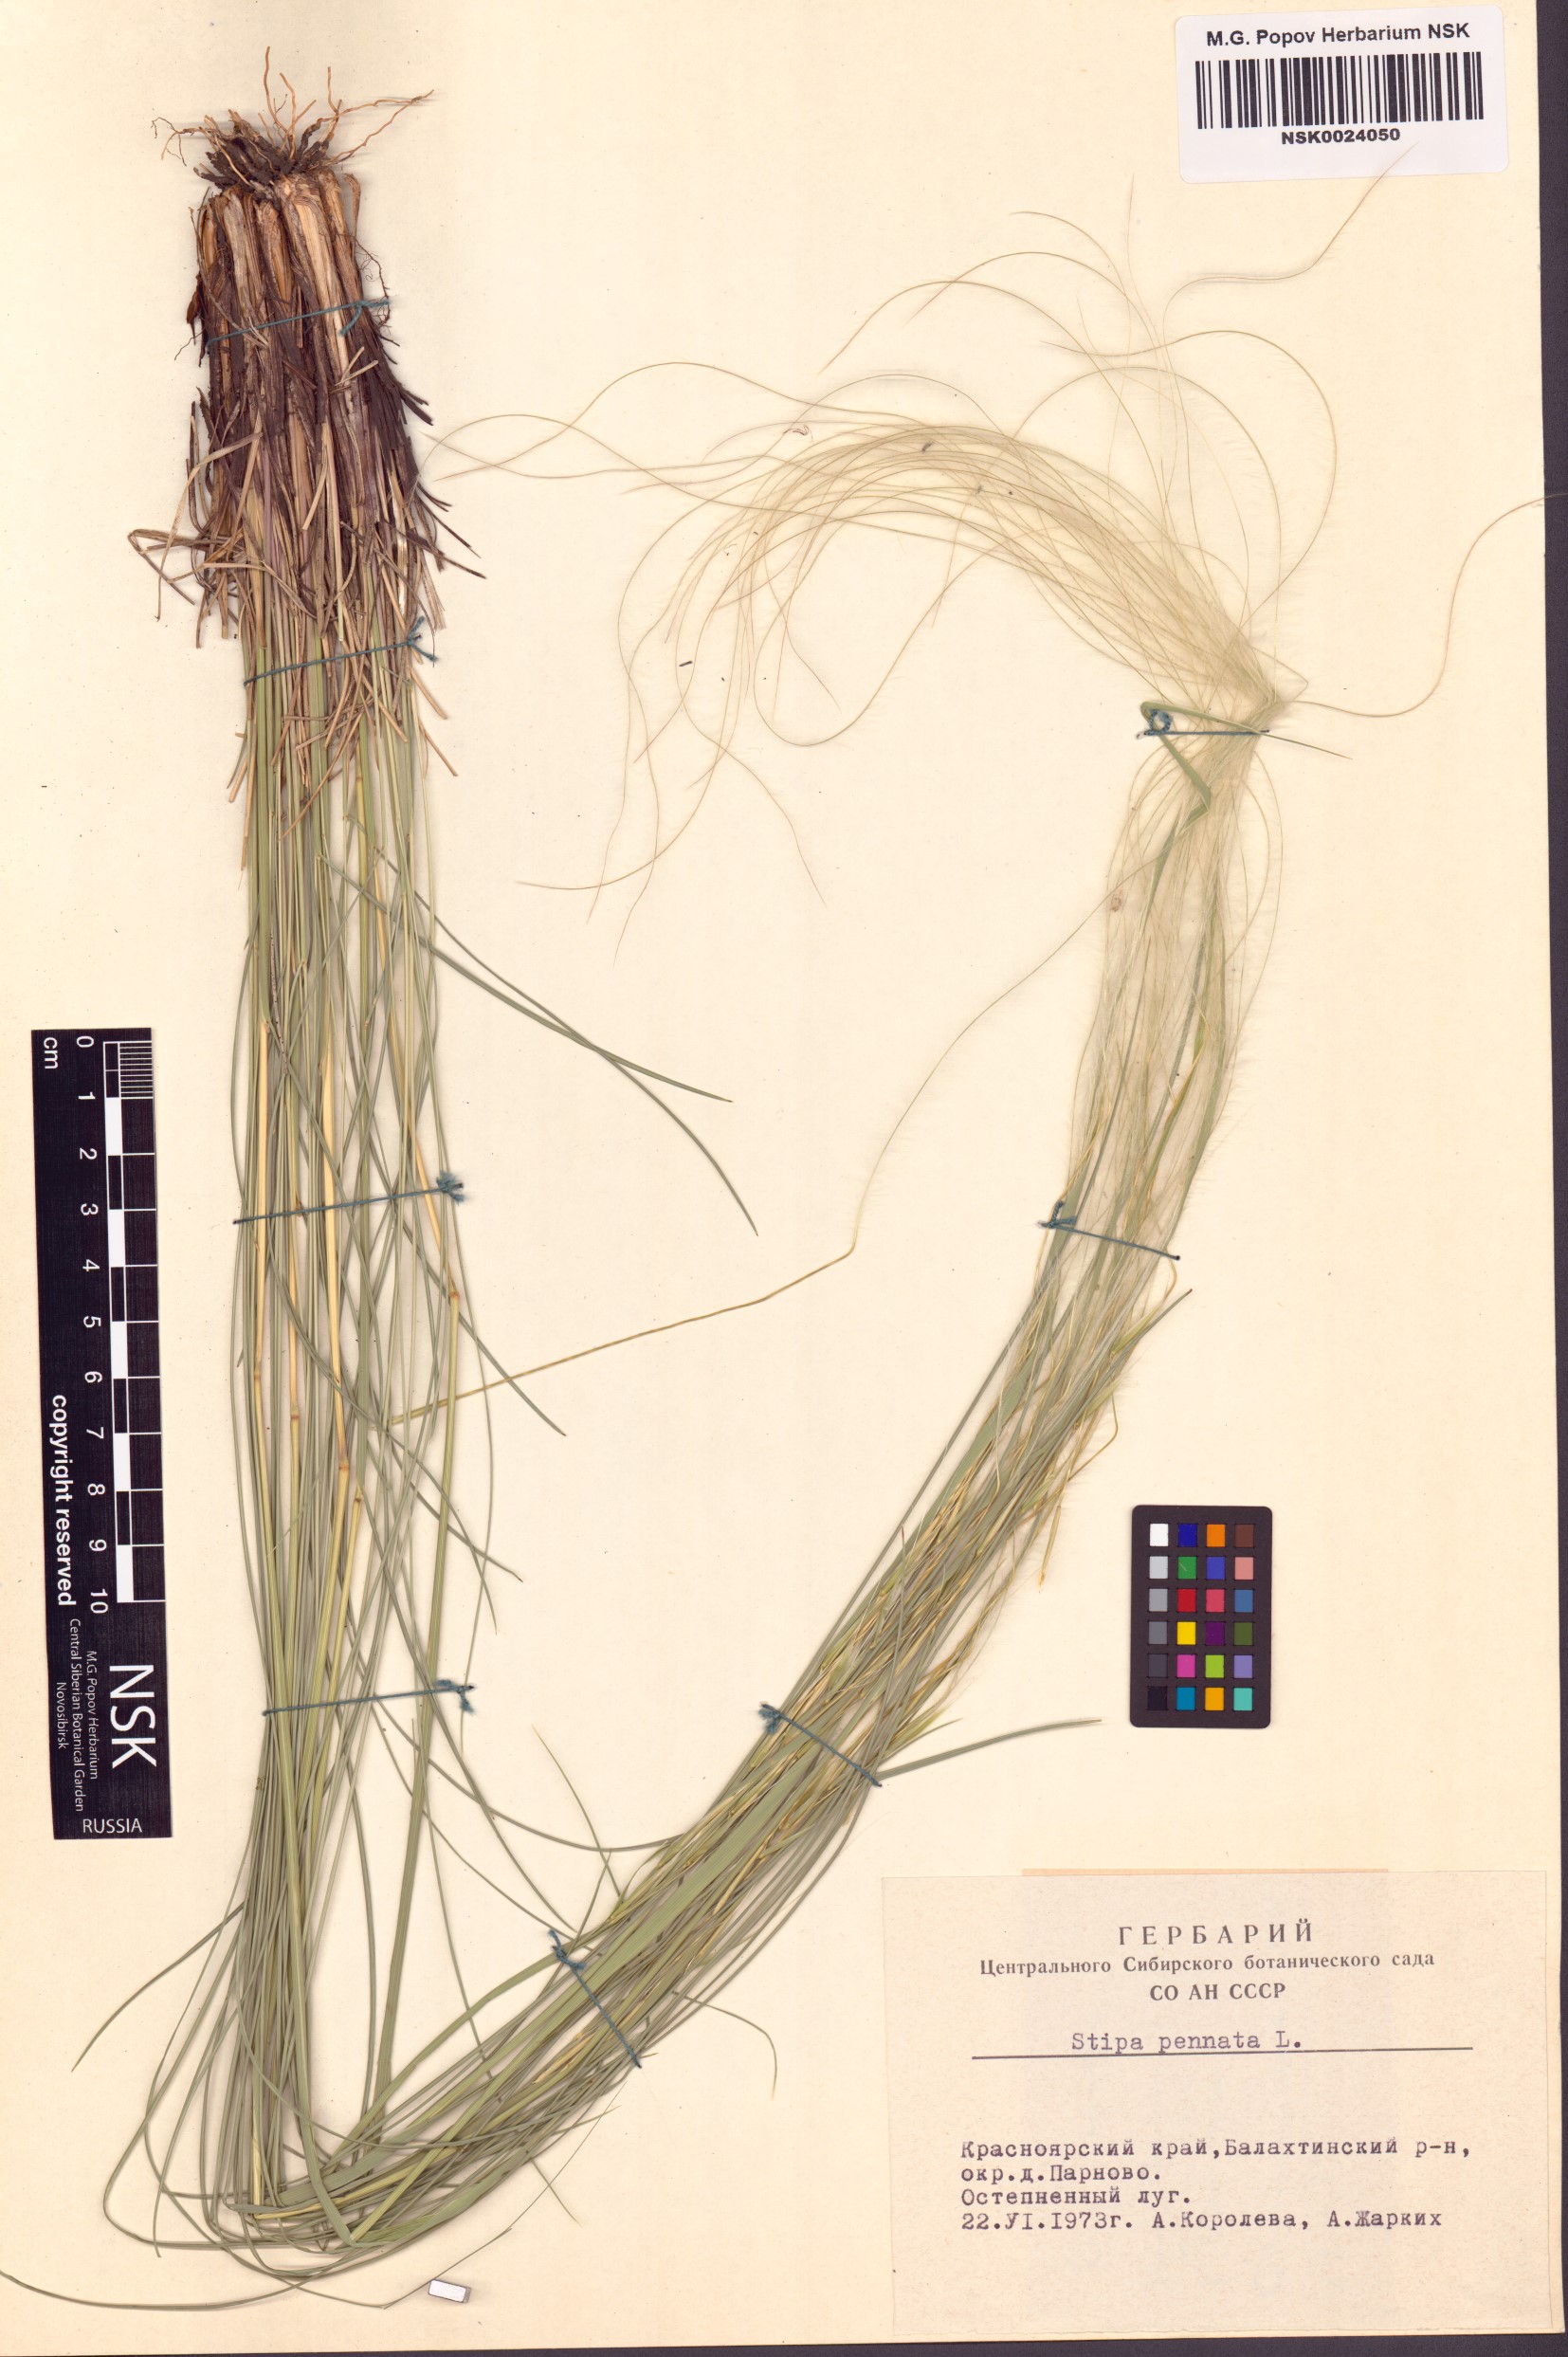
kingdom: Plantae
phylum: Tracheophyta
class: Liliopsida
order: Poales
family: Poaceae
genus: Stipa
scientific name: Stipa pennata
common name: European feather grass
